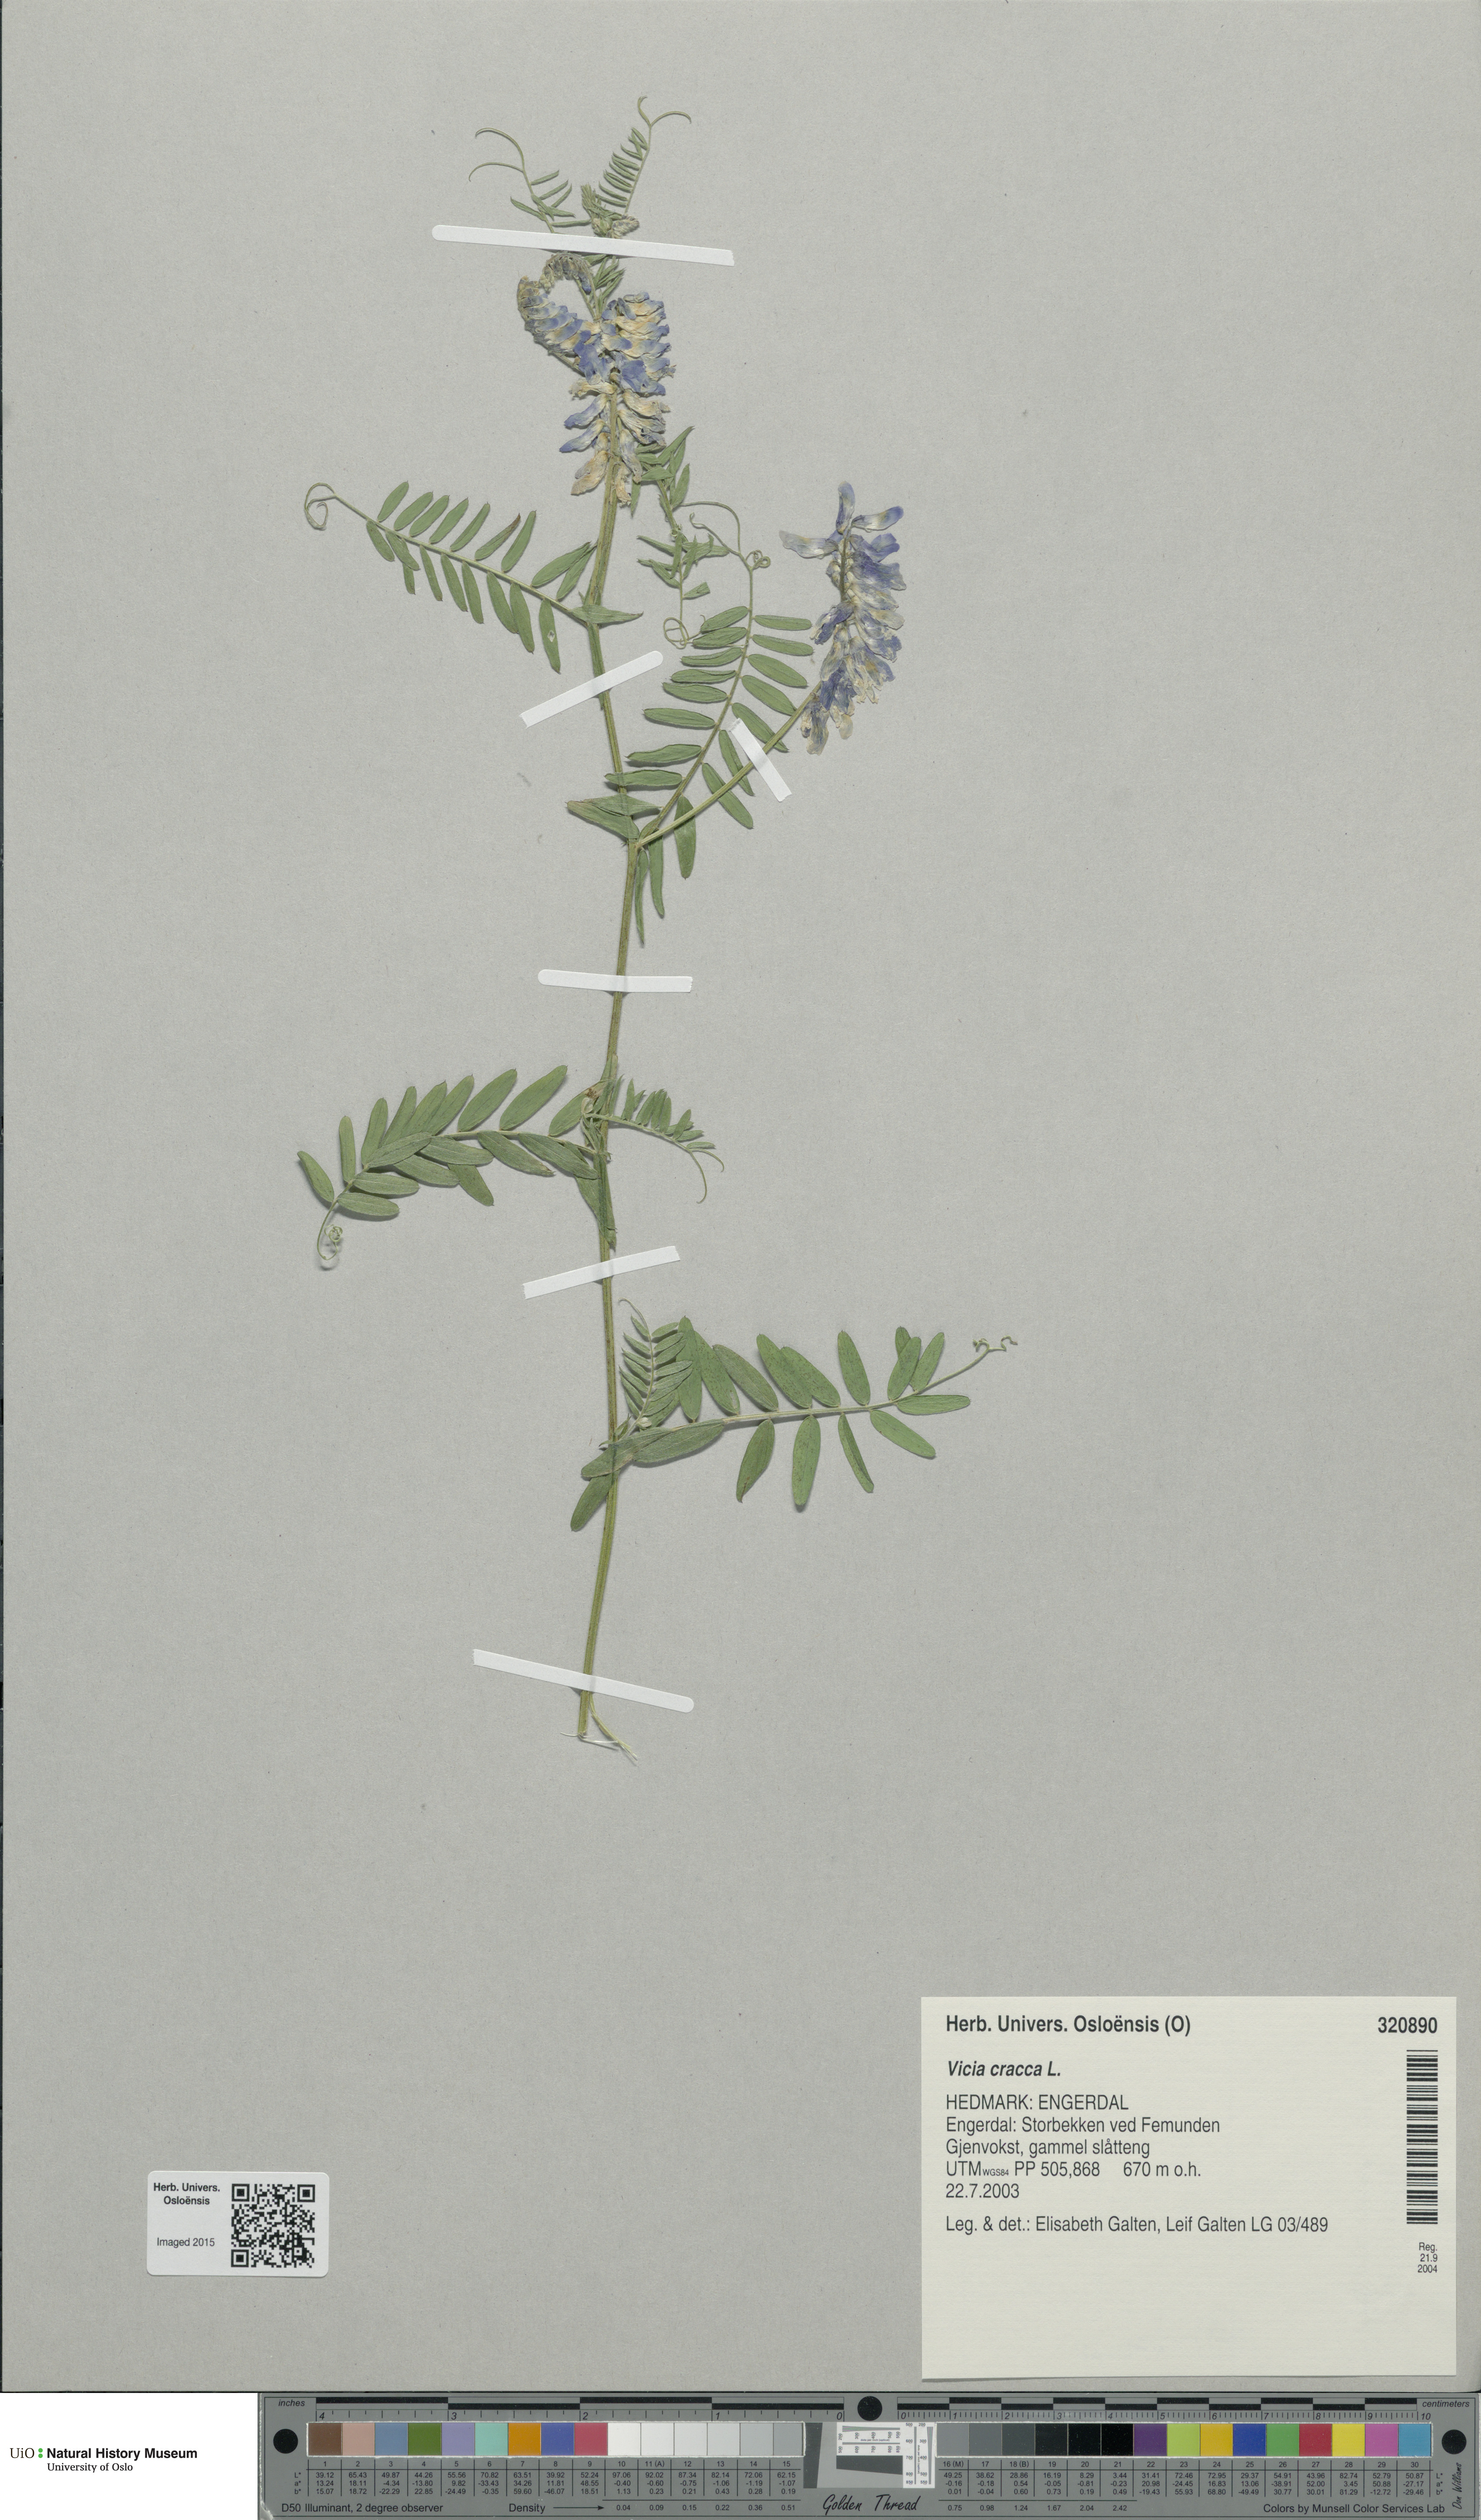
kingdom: Plantae
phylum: Tracheophyta
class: Magnoliopsida
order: Fabales
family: Fabaceae
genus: Vicia
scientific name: Vicia cracca
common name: Bird vetch
